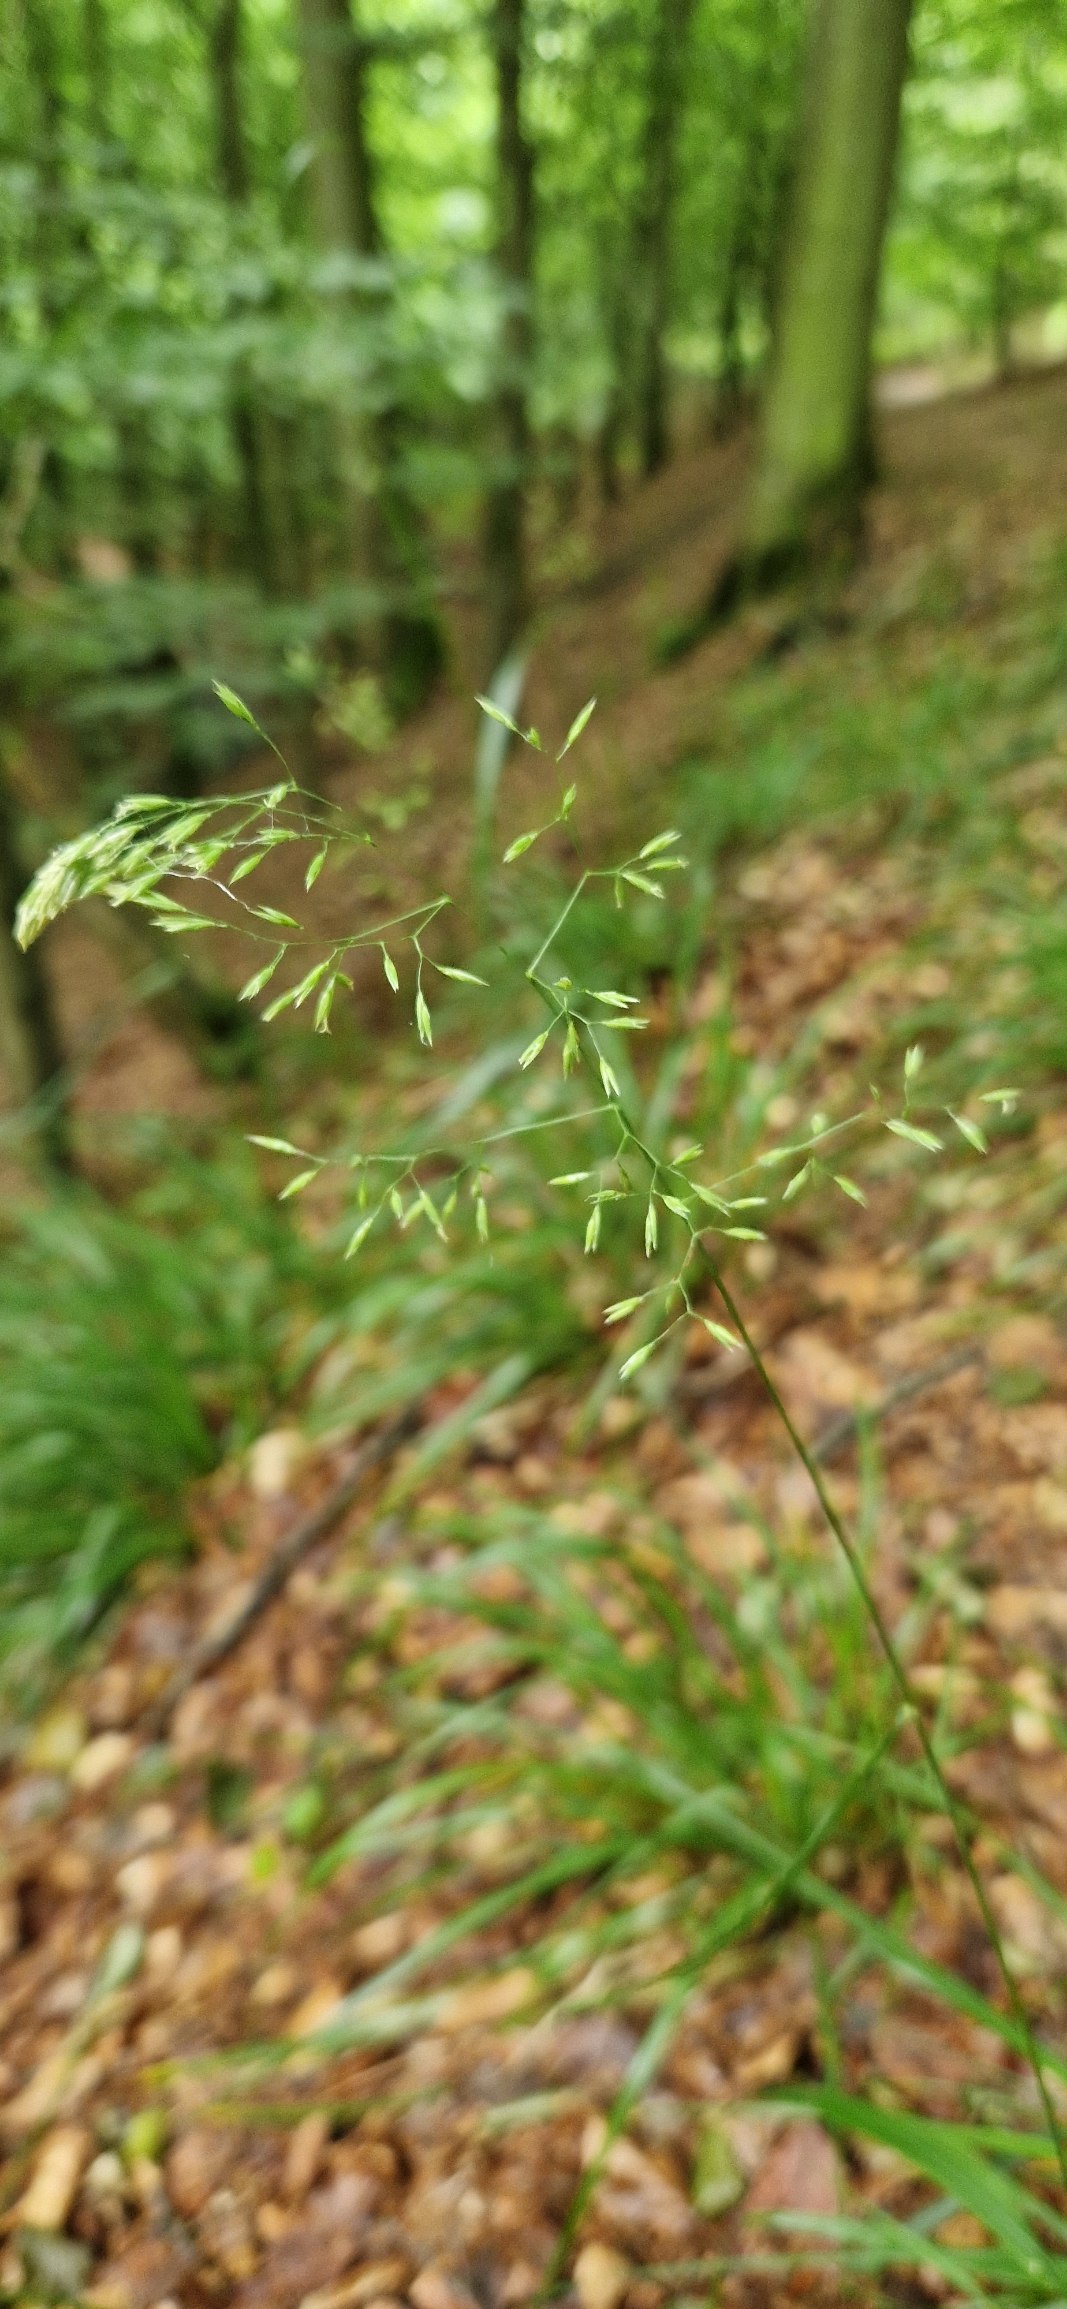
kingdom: Plantae
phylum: Tracheophyta
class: Liliopsida
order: Poales
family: Poaceae
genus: Festuca
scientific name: Festuca altissima
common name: Skov-svingel
